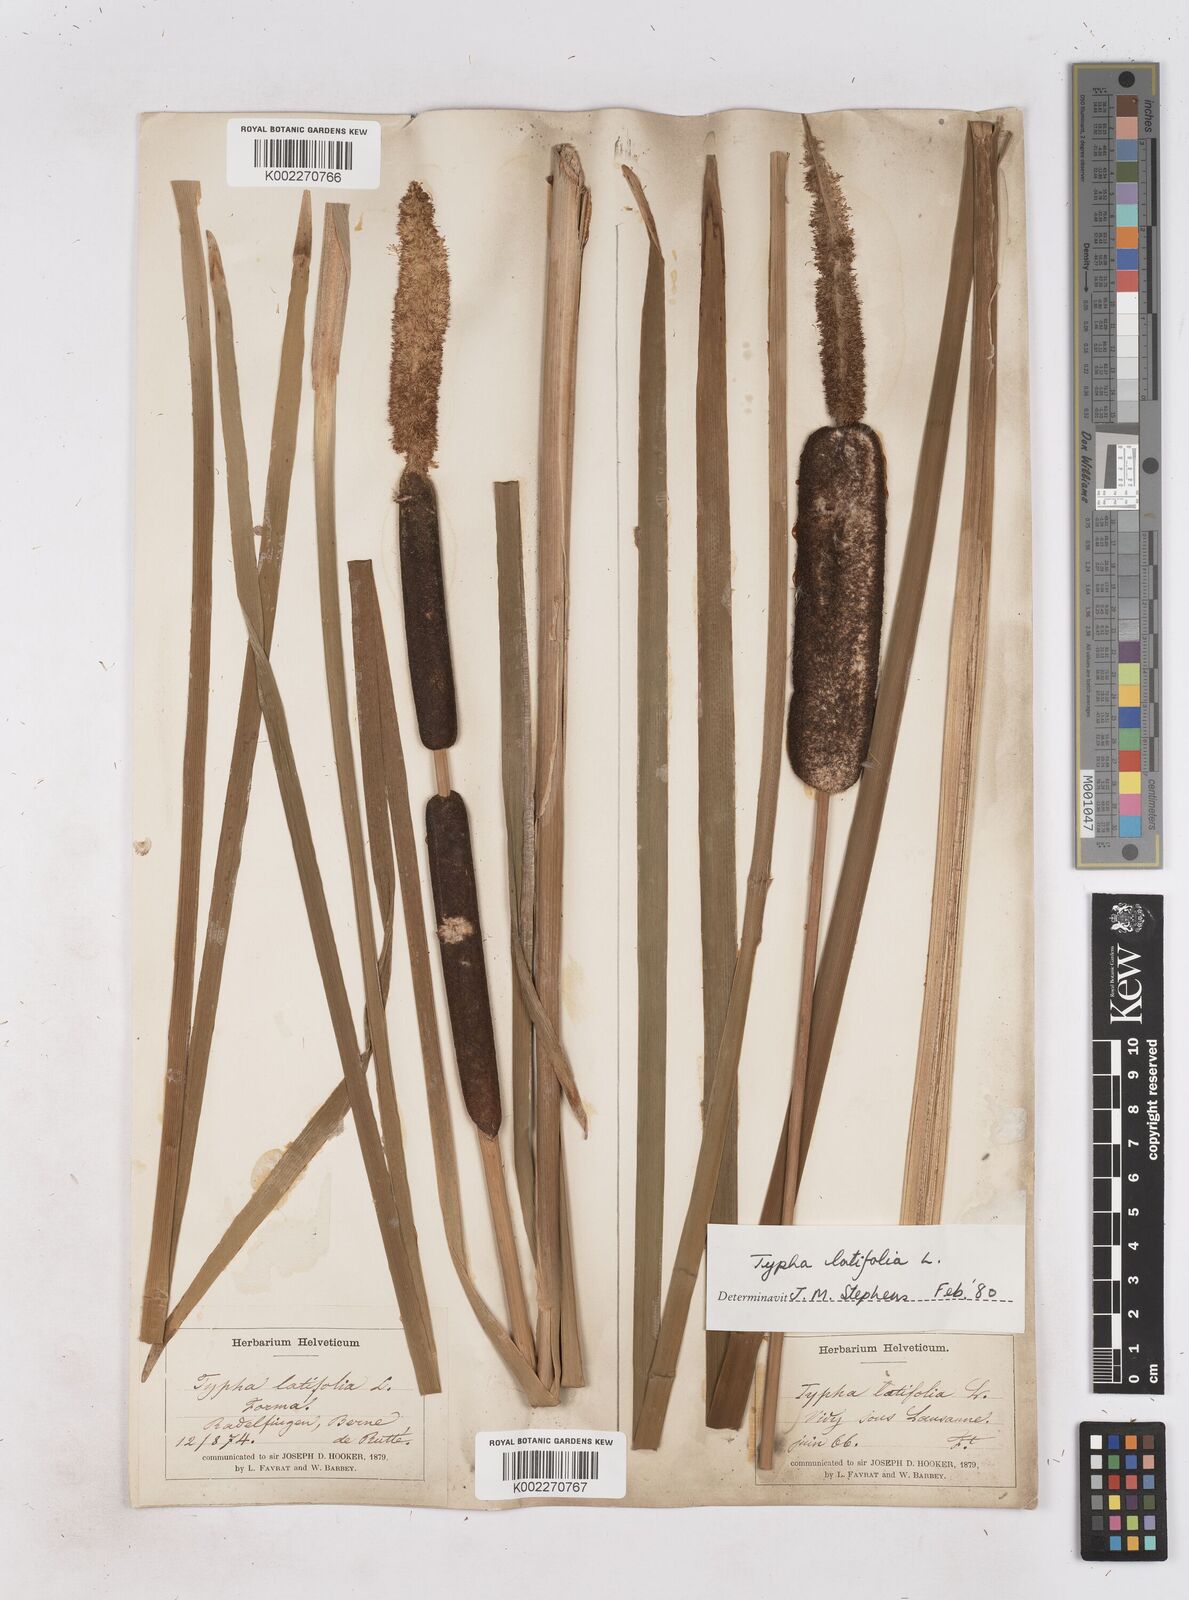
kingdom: Plantae
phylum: Tracheophyta
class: Liliopsida
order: Poales
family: Typhaceae
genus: Typha
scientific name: Typha latifolia
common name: Broadleaf cattail
